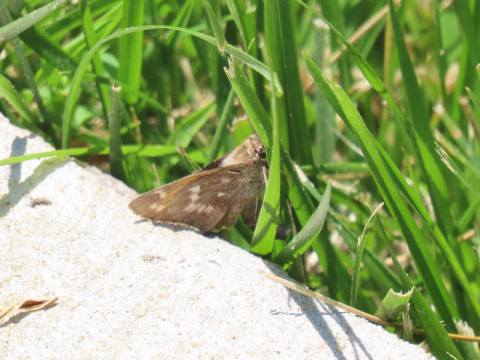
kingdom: Animalia
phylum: Arthropoda
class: Insecta
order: Lepidoptera
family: Hesperiidae
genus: Atalopedes
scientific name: Atalopedes campestris
